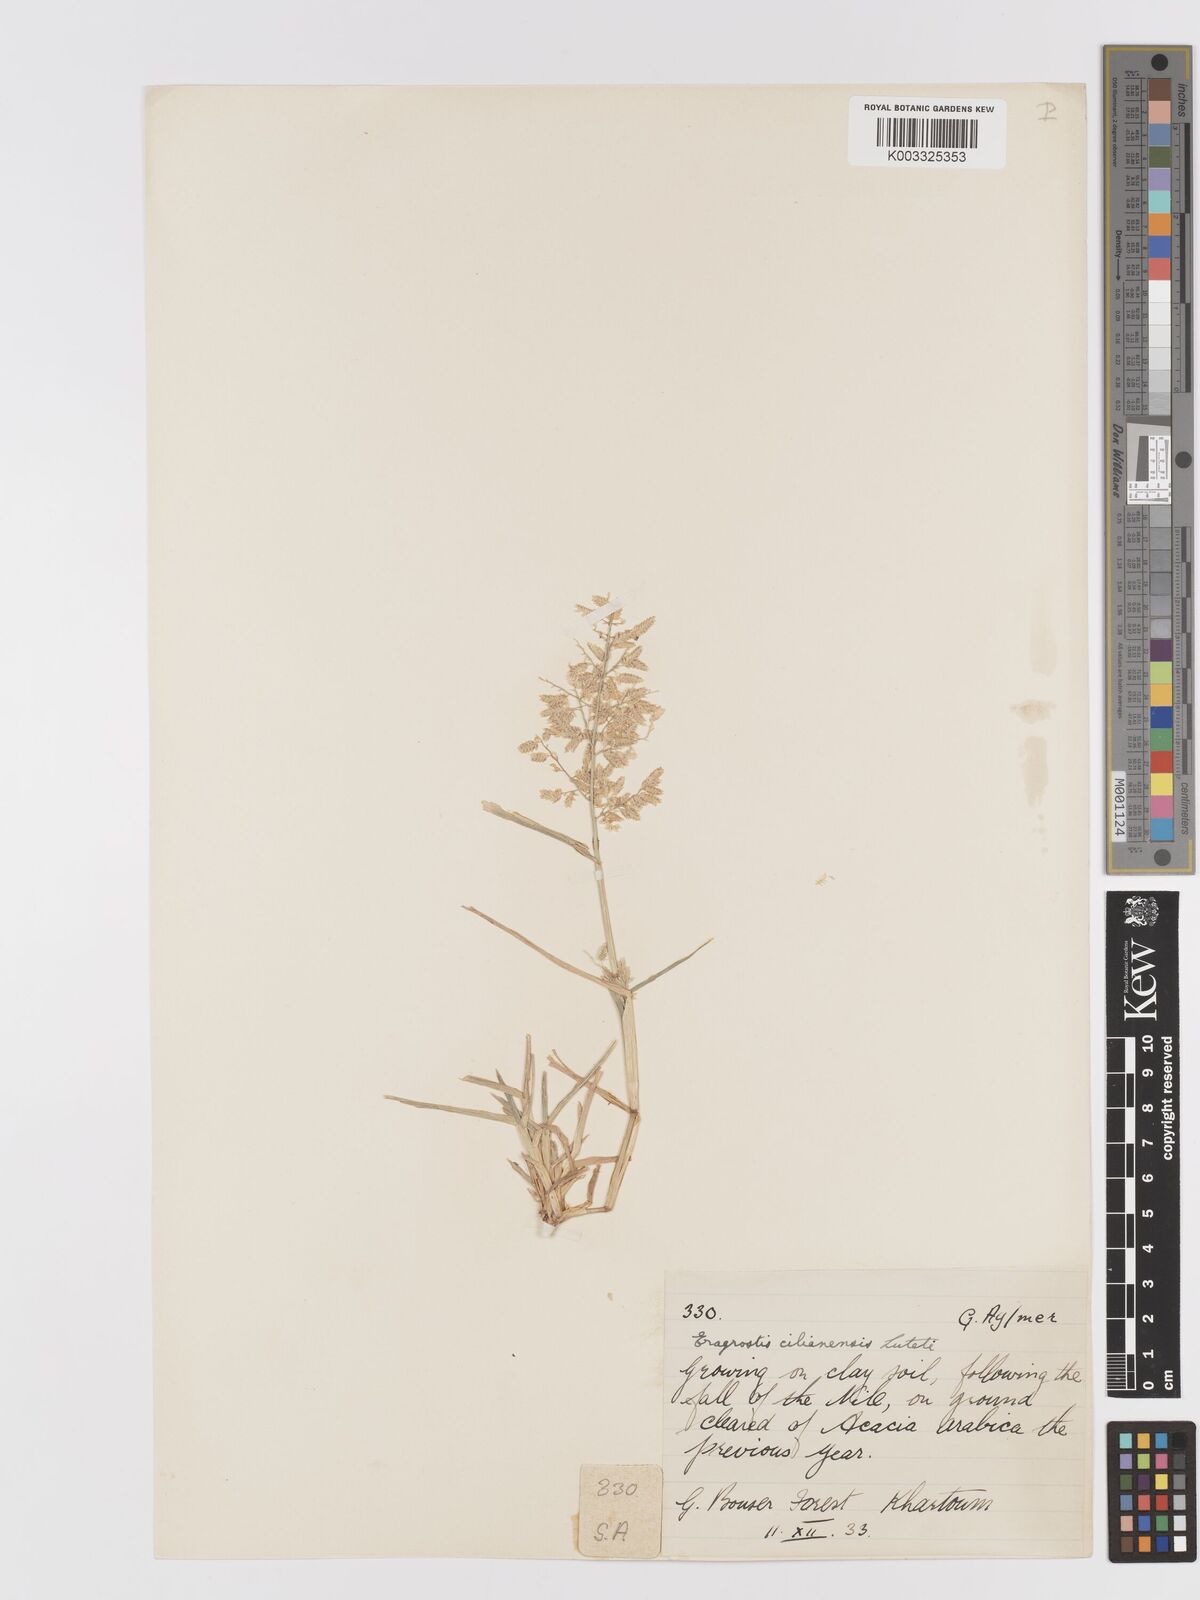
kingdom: Plantae
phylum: Tracheophyta
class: Liliopsida
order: Poales
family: Poaceae
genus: Eragrostis
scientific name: Eragrostis cilianensis
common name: Stinkgrass
